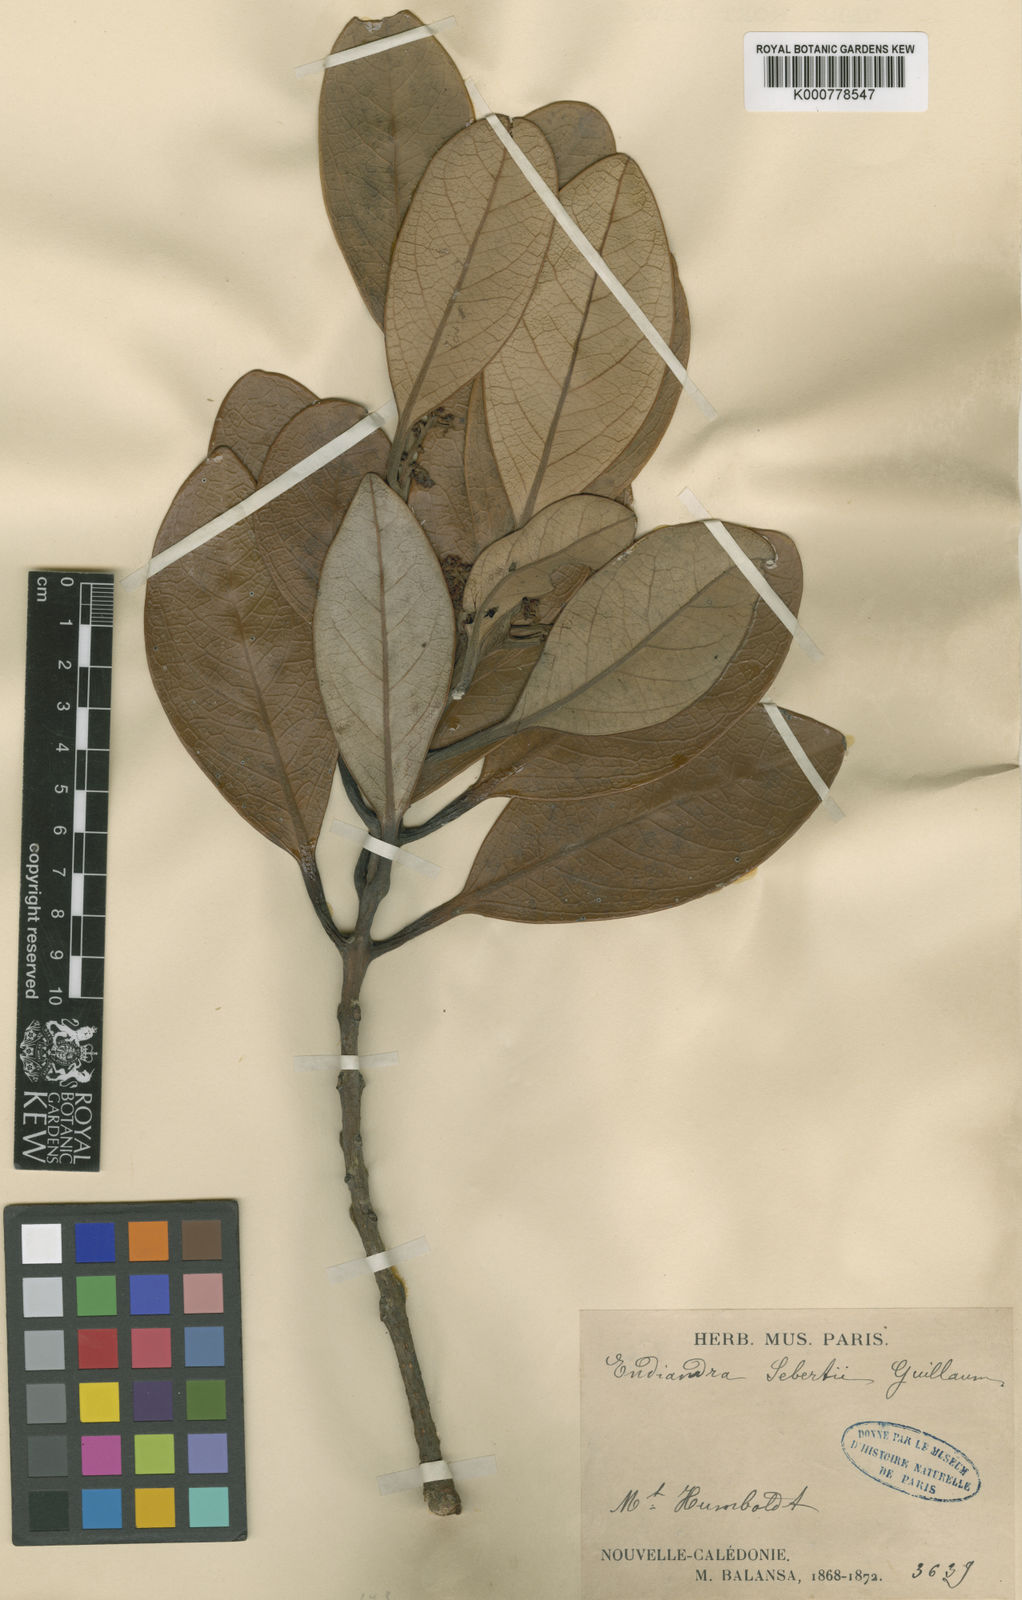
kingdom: Plantae
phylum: Tracheophyta
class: Magnoliopsida
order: Laurales
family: Lauraceae
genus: Endiandra
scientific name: Endiandra sebertii
